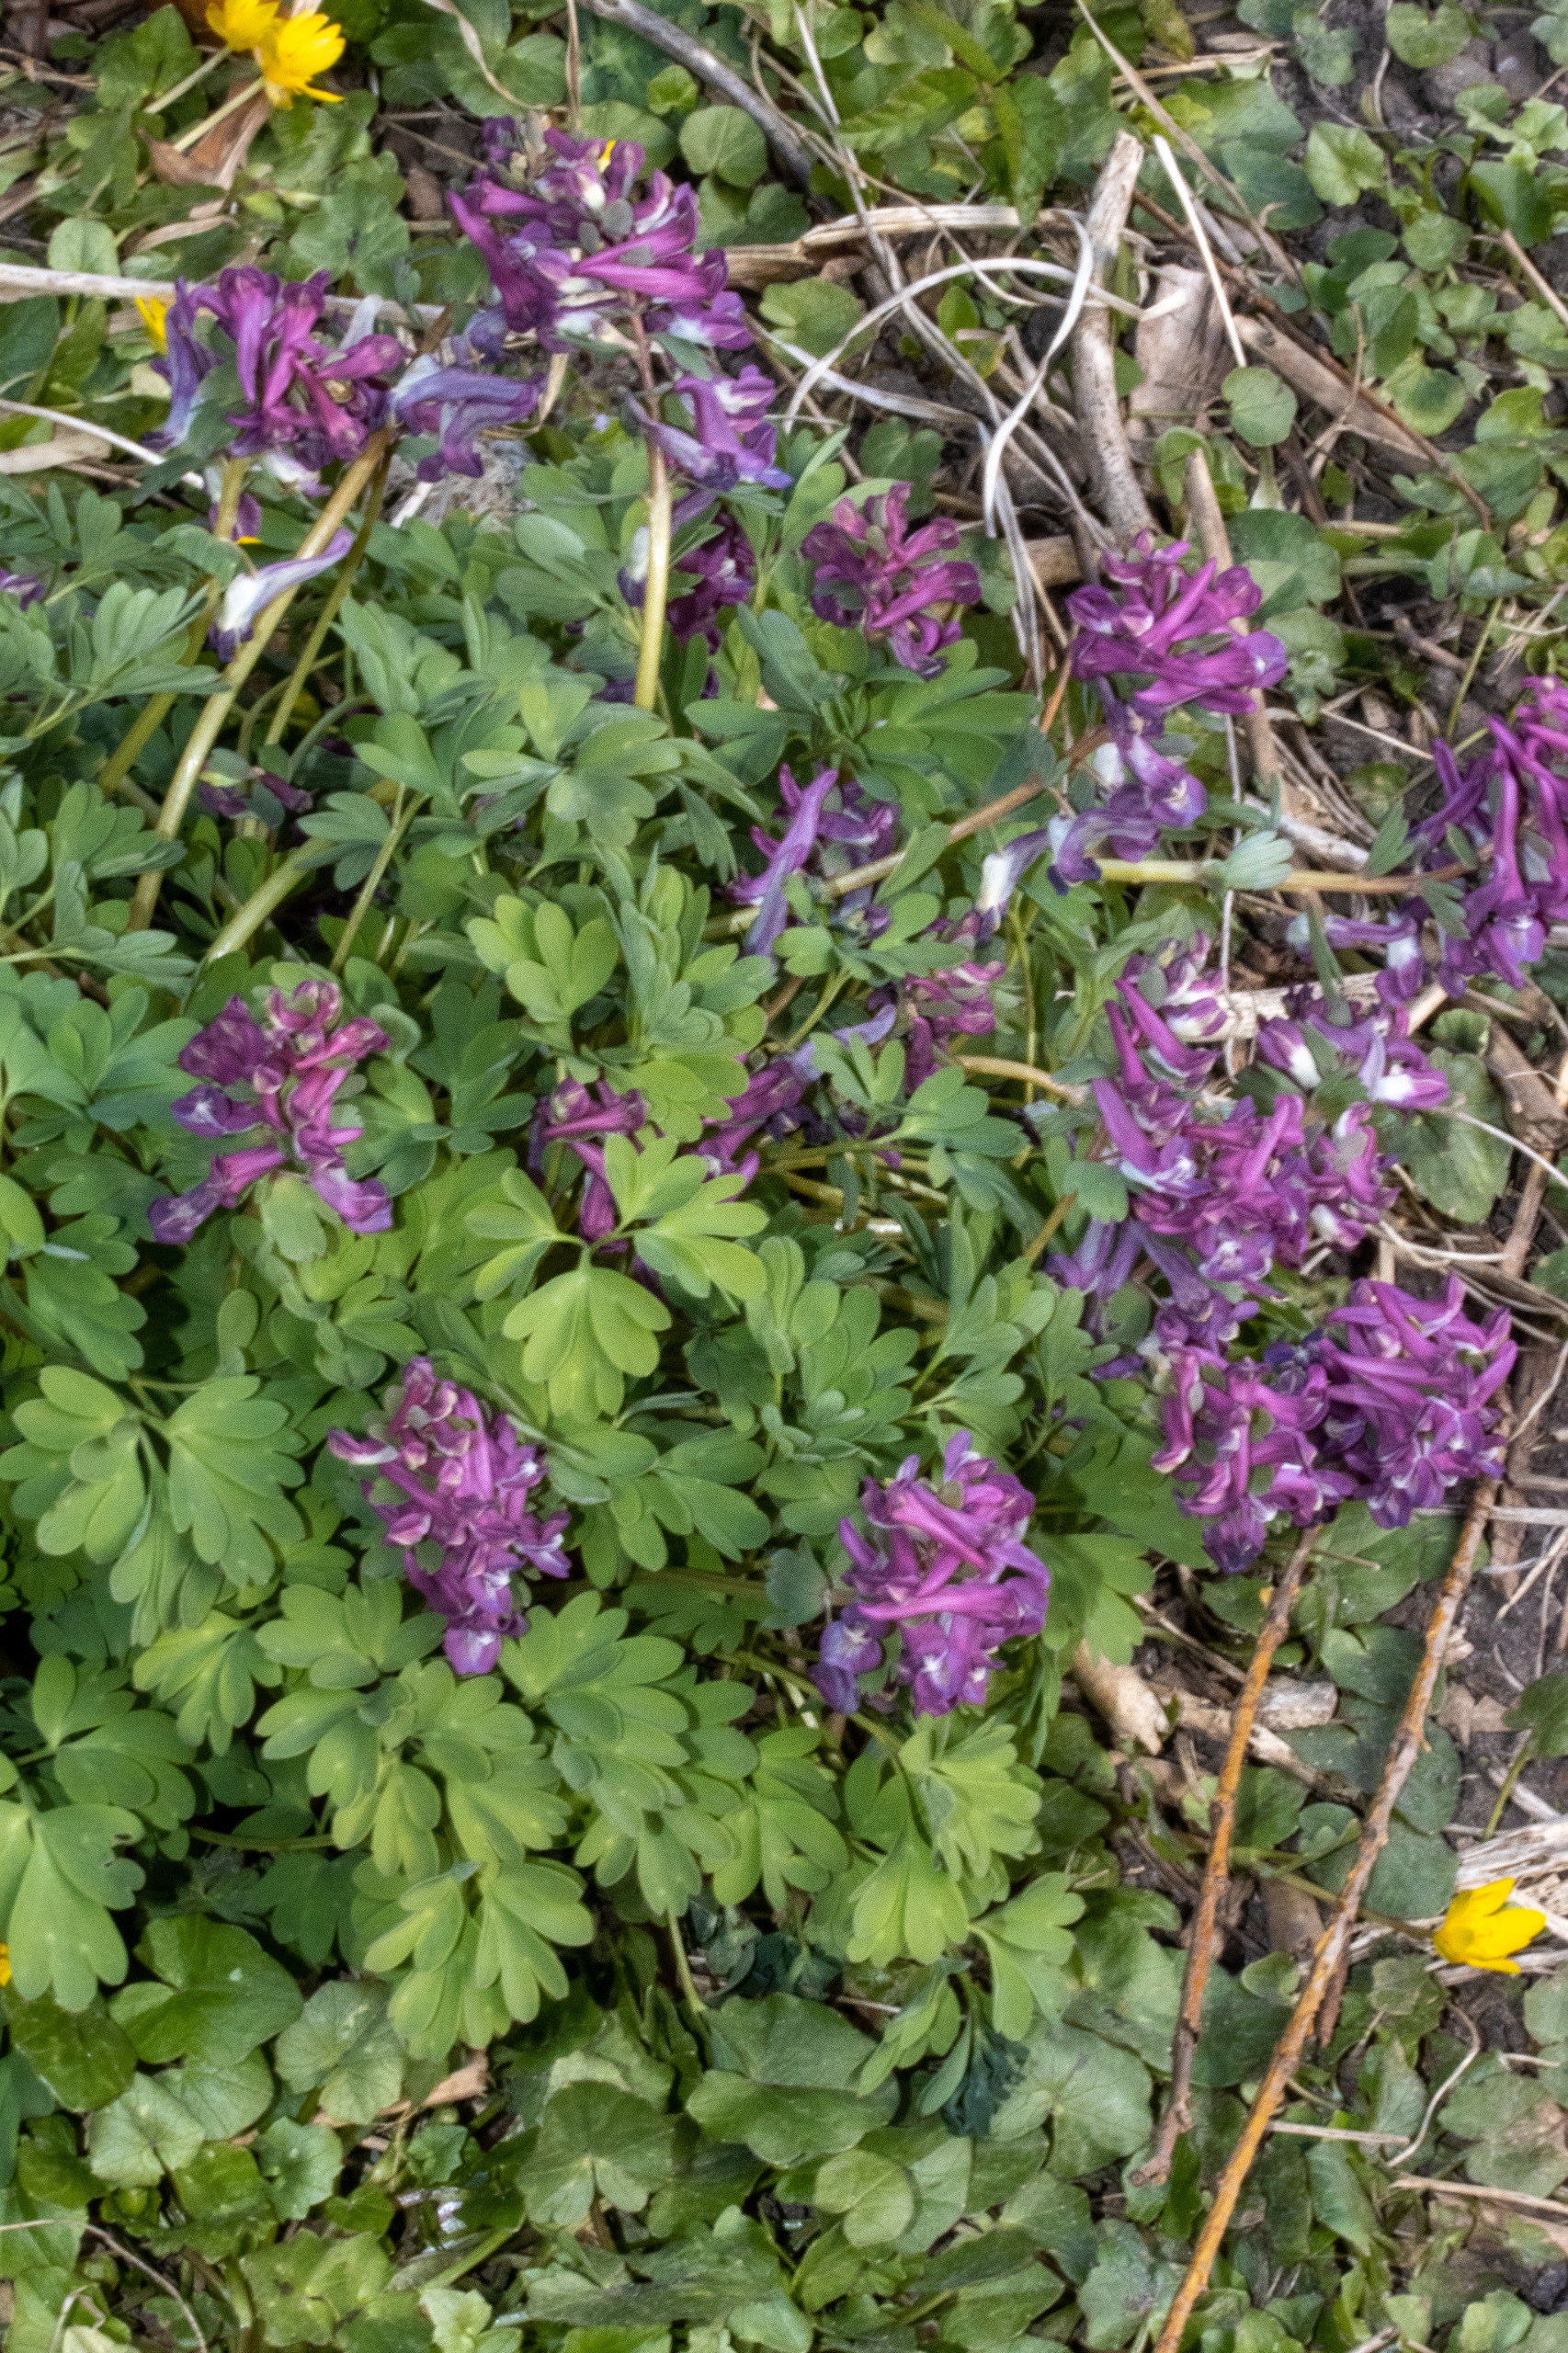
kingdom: Plantae
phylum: Tracheophyta
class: Magnoliopsida
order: Ranunculales
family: Papaveraceae
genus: Corydalis
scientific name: Corydalis solida
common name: Langstilket lærkespore
